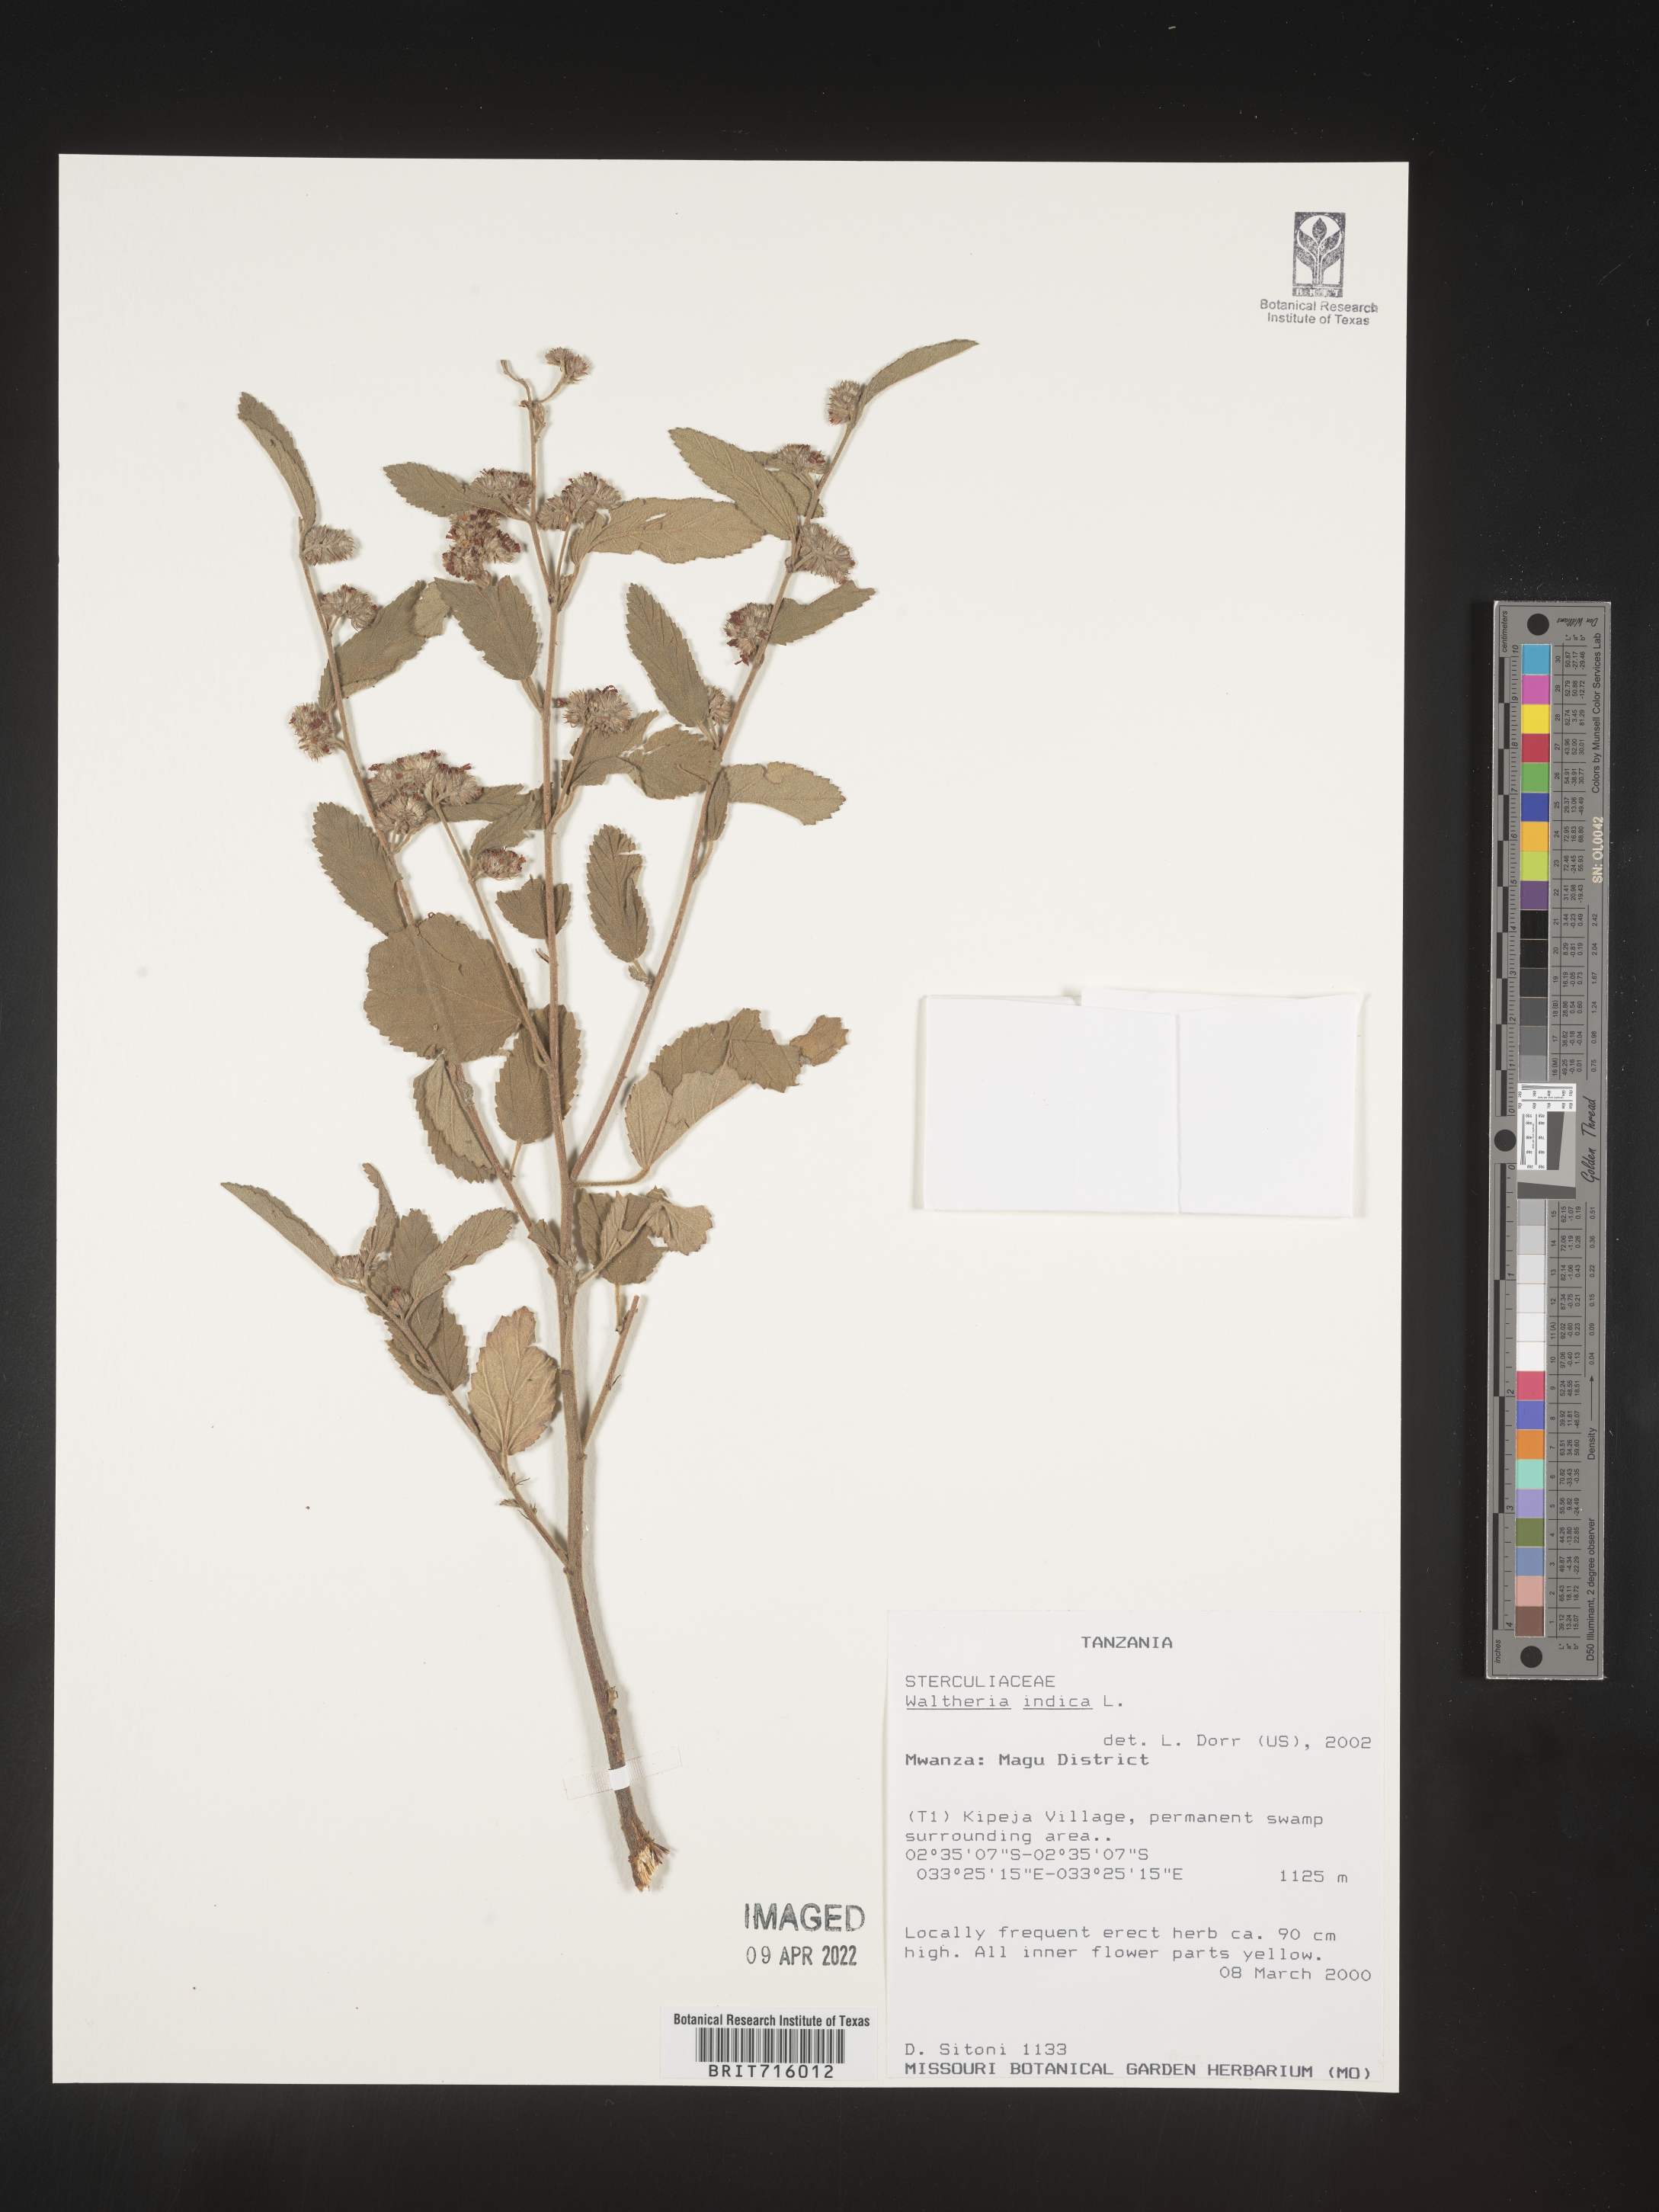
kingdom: Plantae
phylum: Tracheophyta
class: Magnoliopsida
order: Malvales
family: Malvaceae
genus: Waltheria
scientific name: Waltheria
